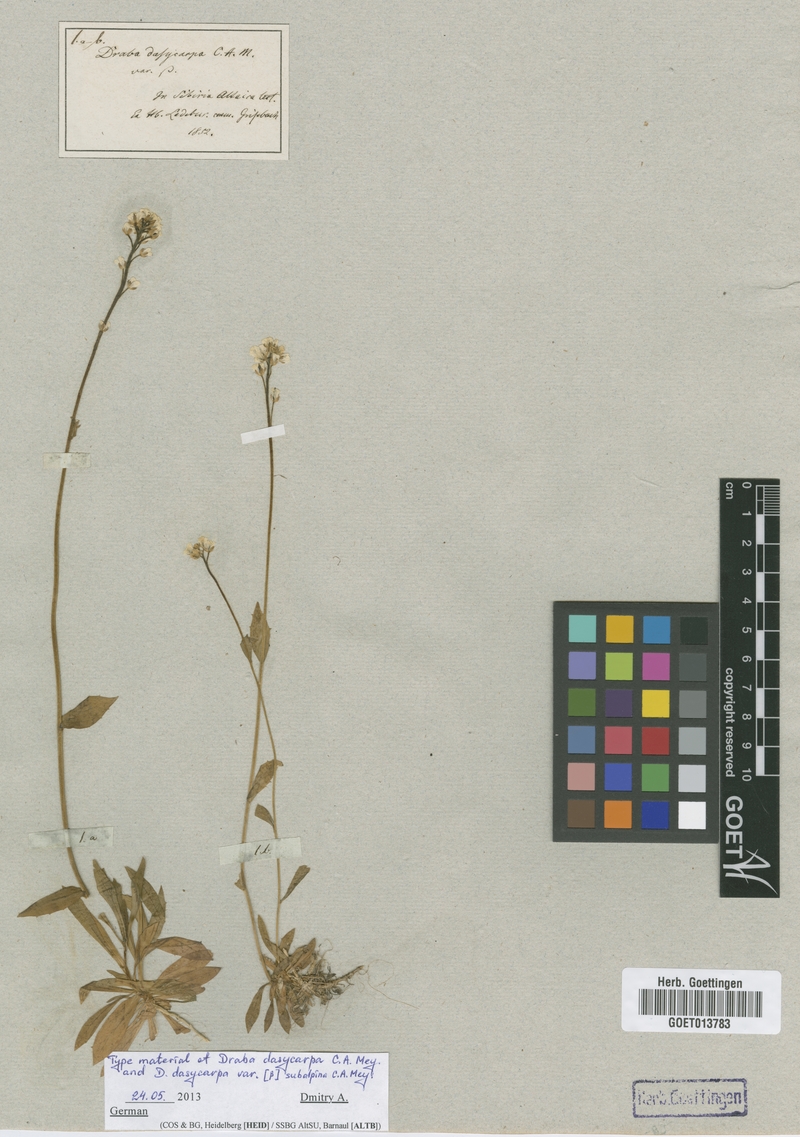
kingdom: Plantae
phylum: Tracheophyta
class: Magnoliopsida
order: Brassicales
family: Brassicaceae
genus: Draba
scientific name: Draba subamplexicaulis
